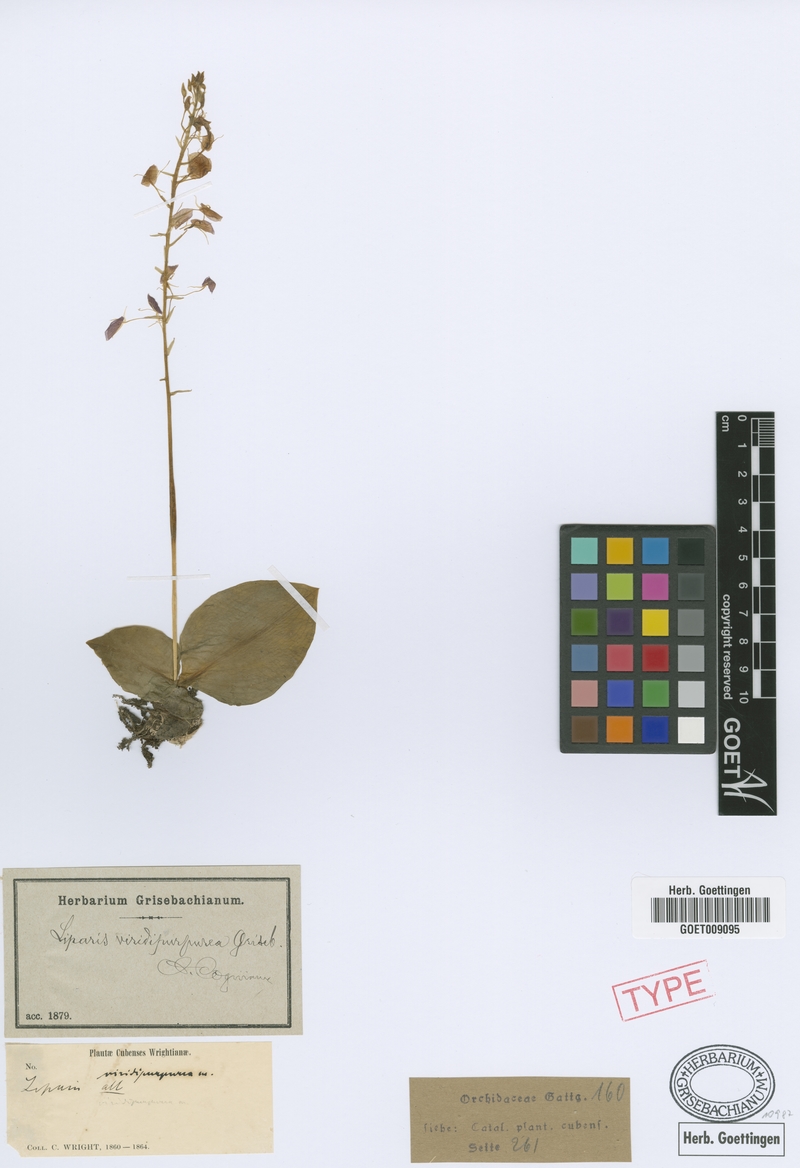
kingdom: Plantae
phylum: Tracheophyta
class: Liliopsida
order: Asparagales
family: Orchidaceae
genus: Liparis
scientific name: Liparis viridipurpurea
